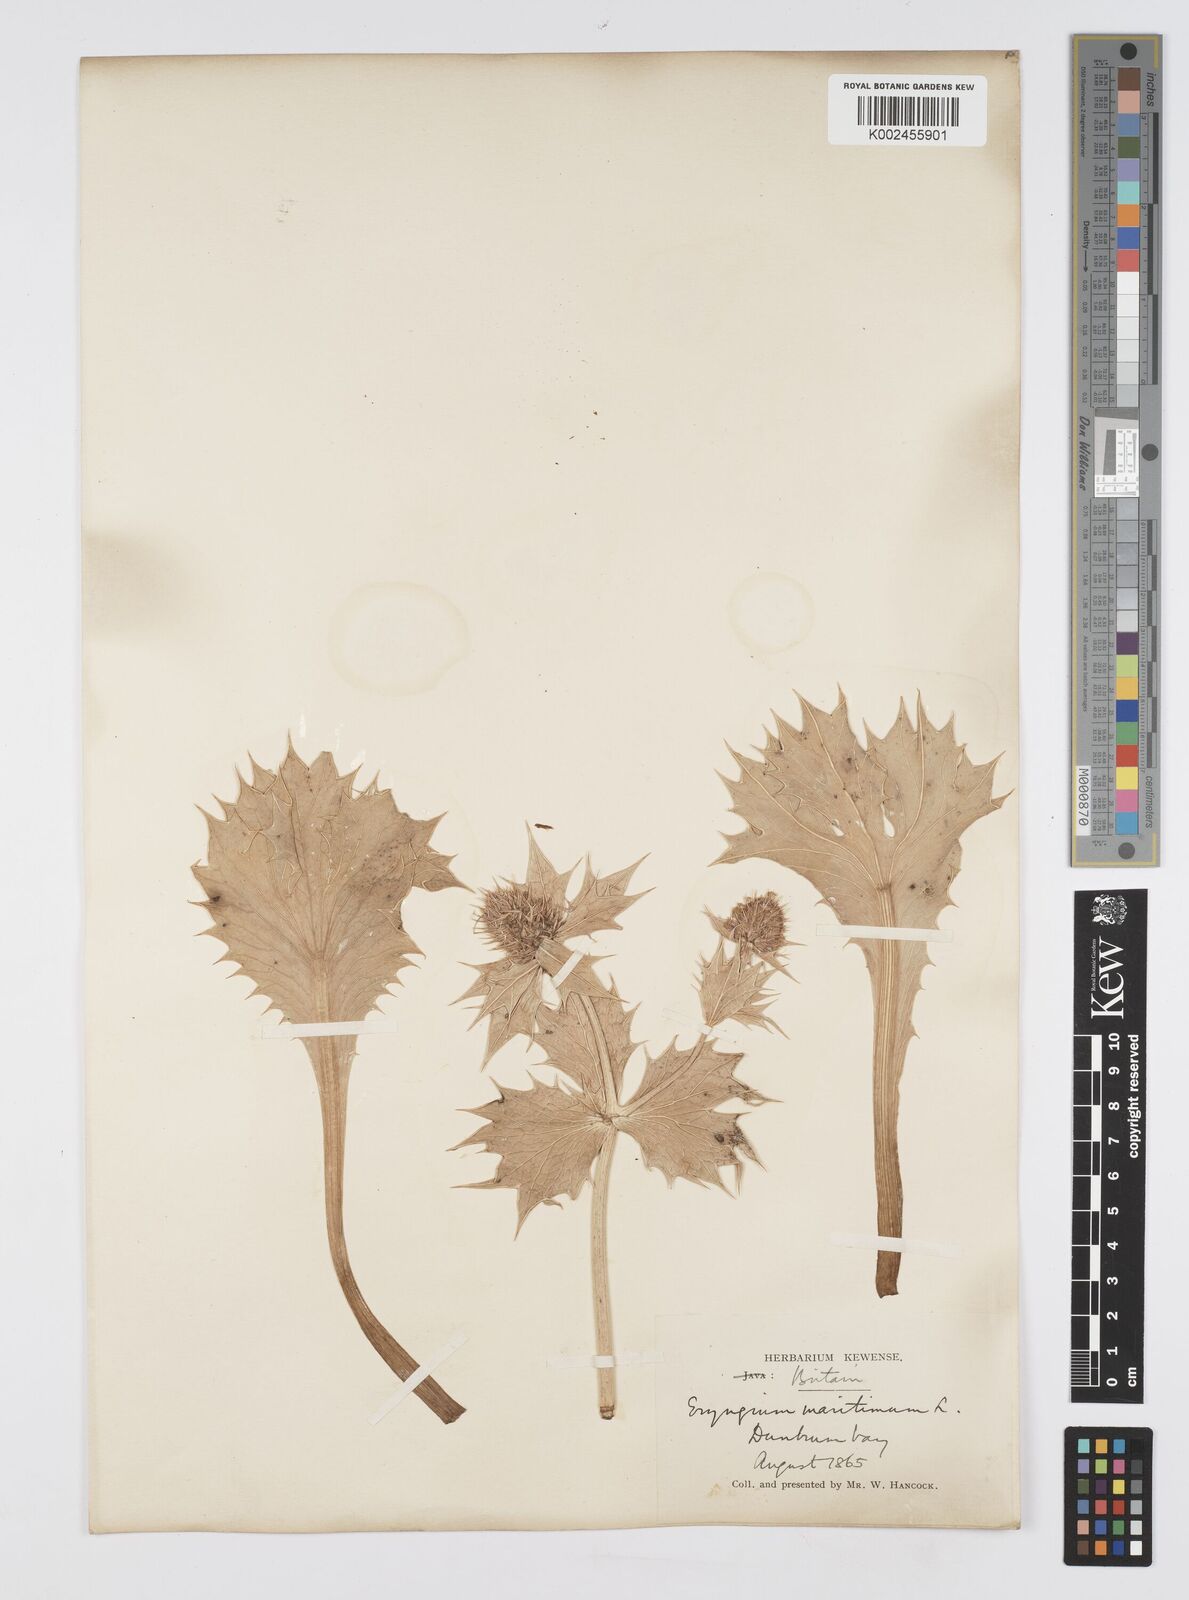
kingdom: Plantae
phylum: Tracheophyta
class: Magnoliopsida
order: Apiales
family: Apiaceae
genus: Eryngium
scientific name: Eryngium maritimum
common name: Sea-holly
